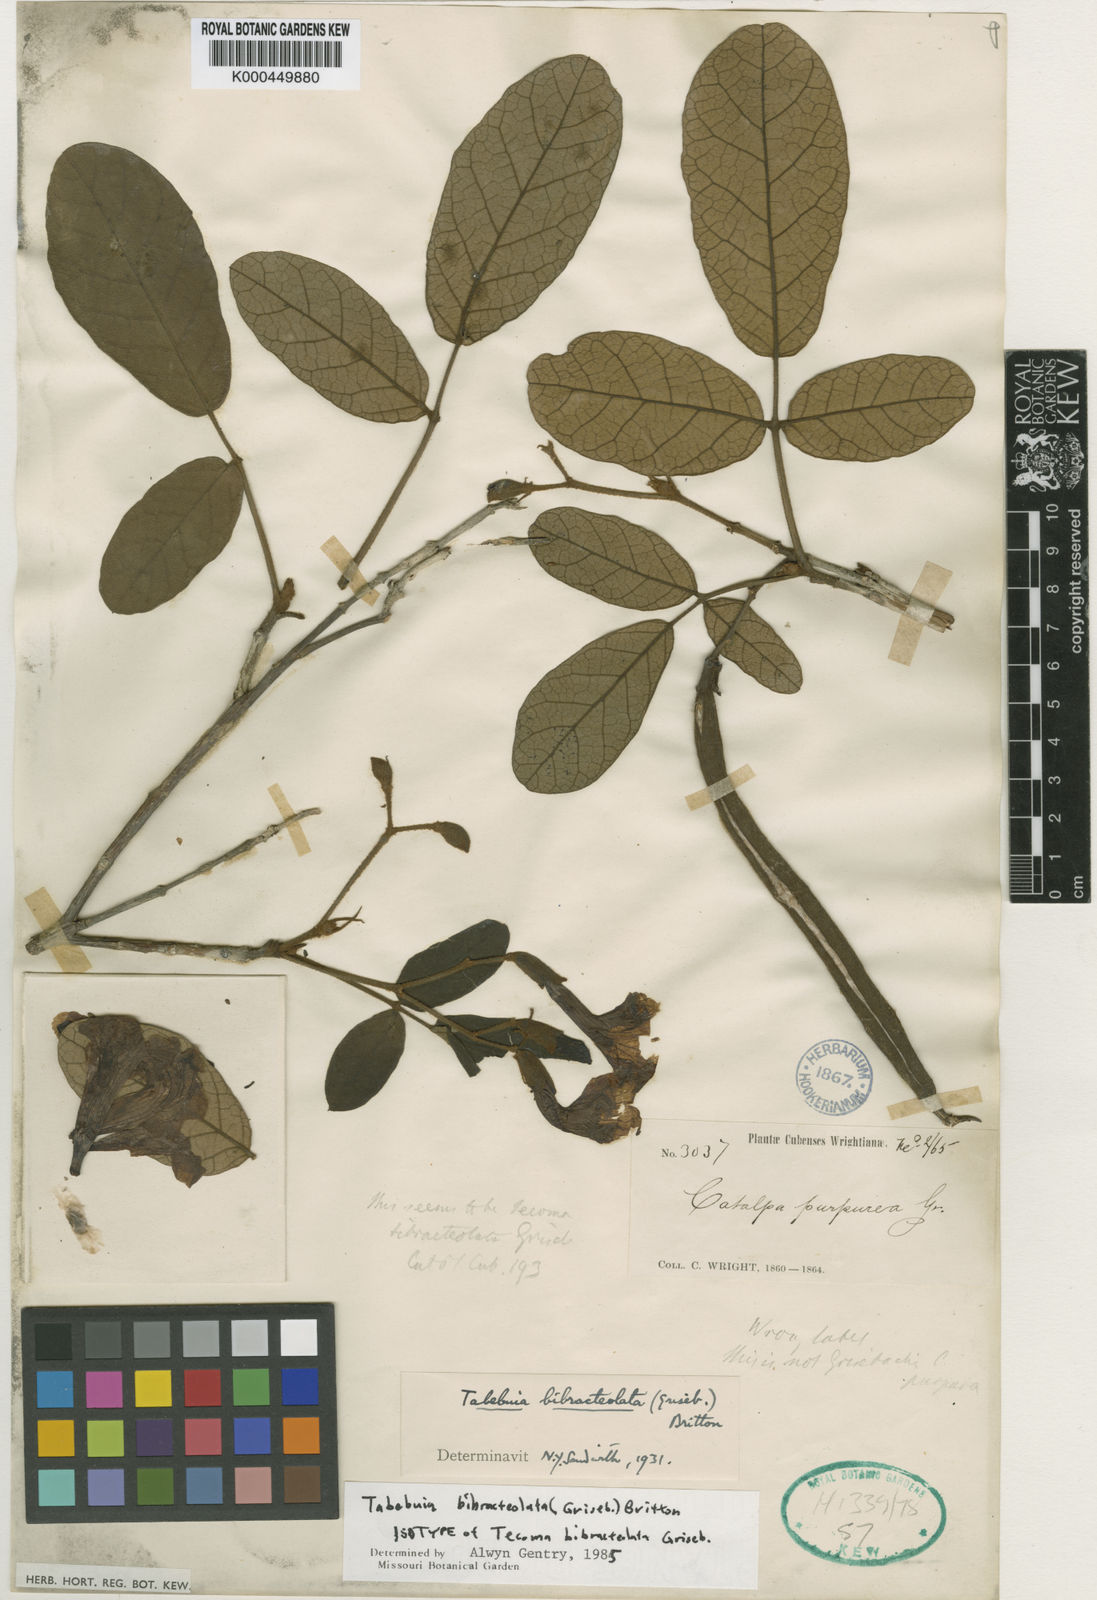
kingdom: Plantae
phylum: Tracheophyta
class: Magnoliopsida
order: Lamiales
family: Bignoniaceae
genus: Tabebuia
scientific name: Tabebuia bibracteolata
